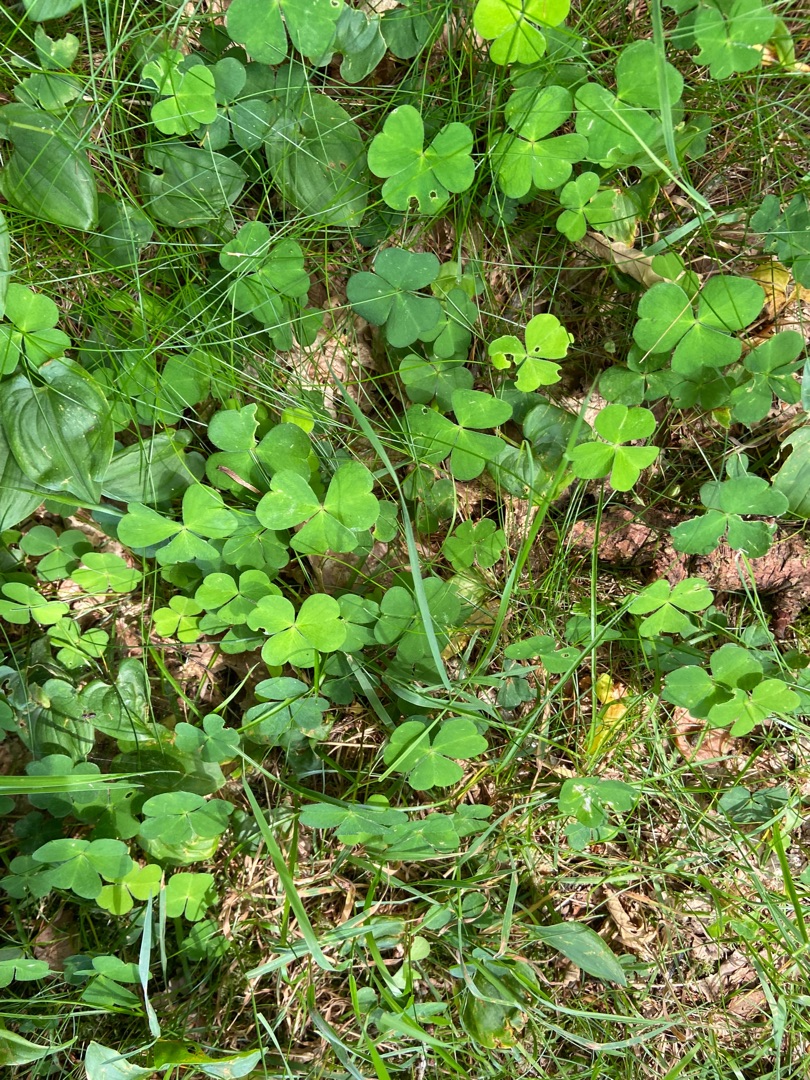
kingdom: Plantae
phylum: Tracheophyta
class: Magnoliopsida
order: Oxalidales
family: Oxalidaceae
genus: Oxalis
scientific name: Oxalis acetosella
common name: Skovsyre
